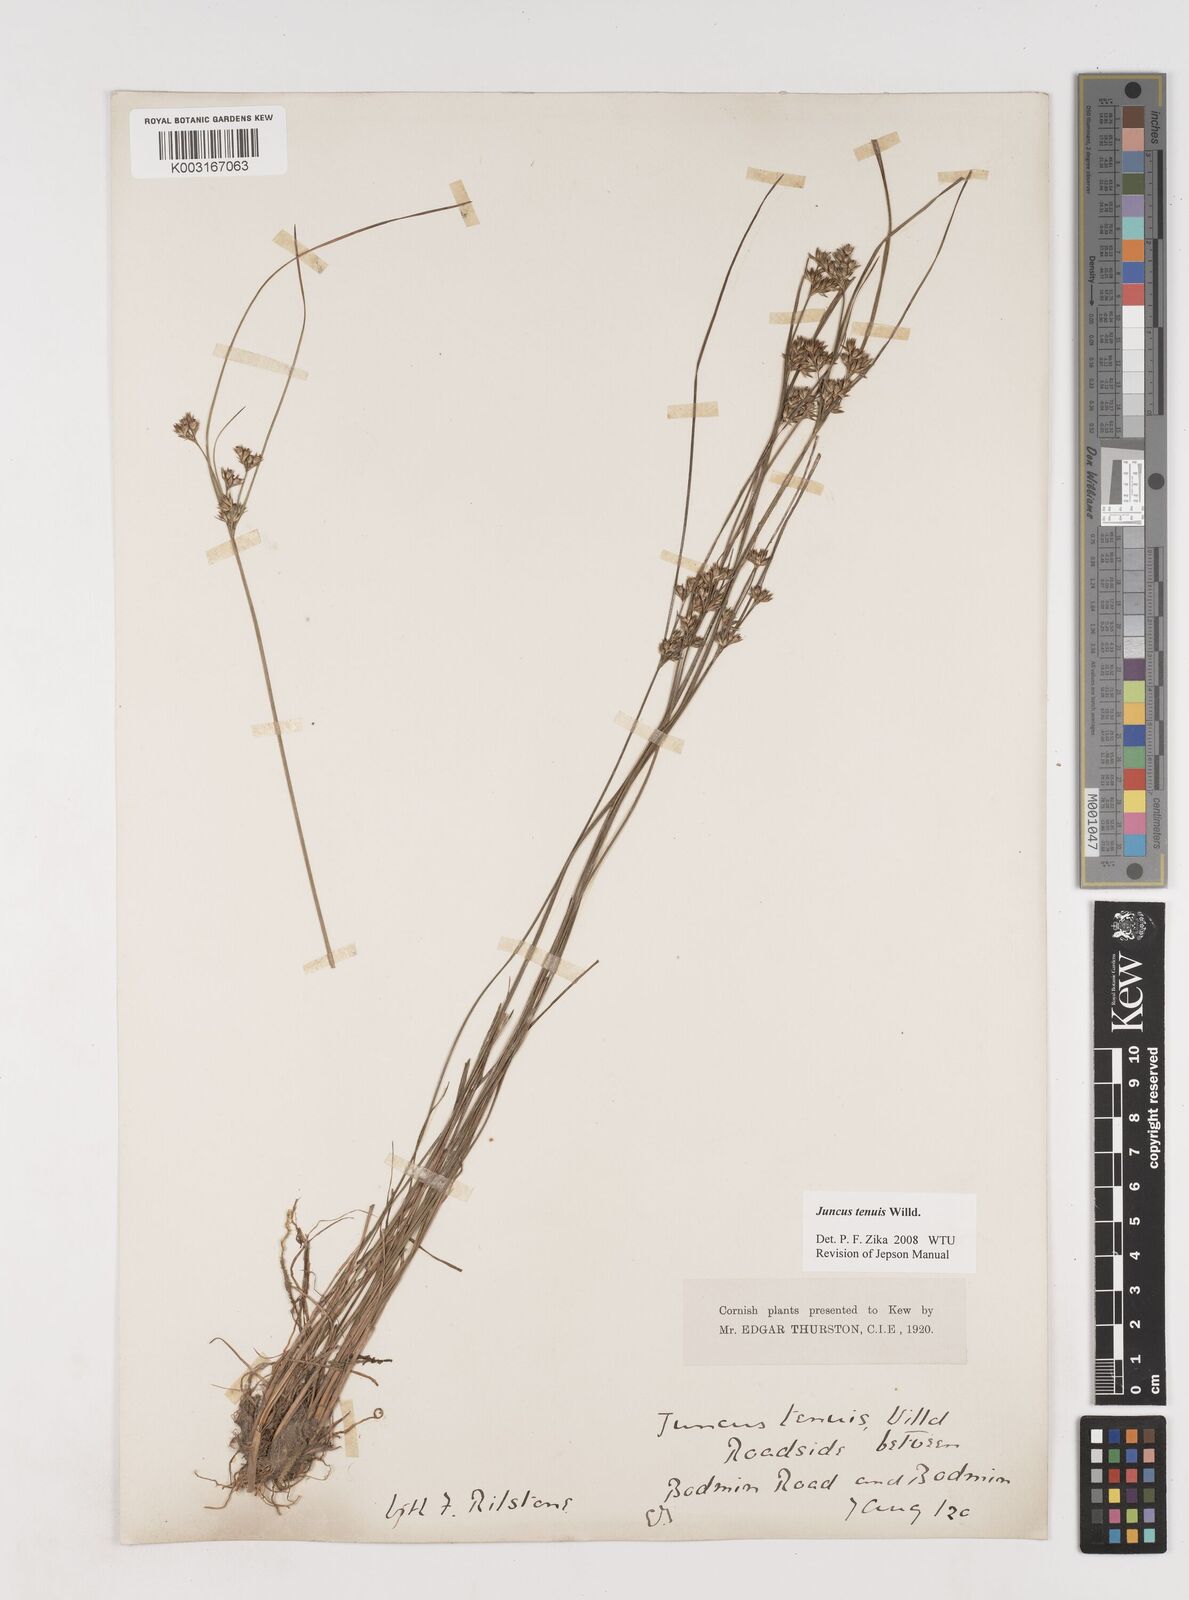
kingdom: Plantae
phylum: Tracheophyta
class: Liliopsida
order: Poales
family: Juncaceae
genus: Juncus
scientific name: Juncus tenuis
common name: Slender rush
